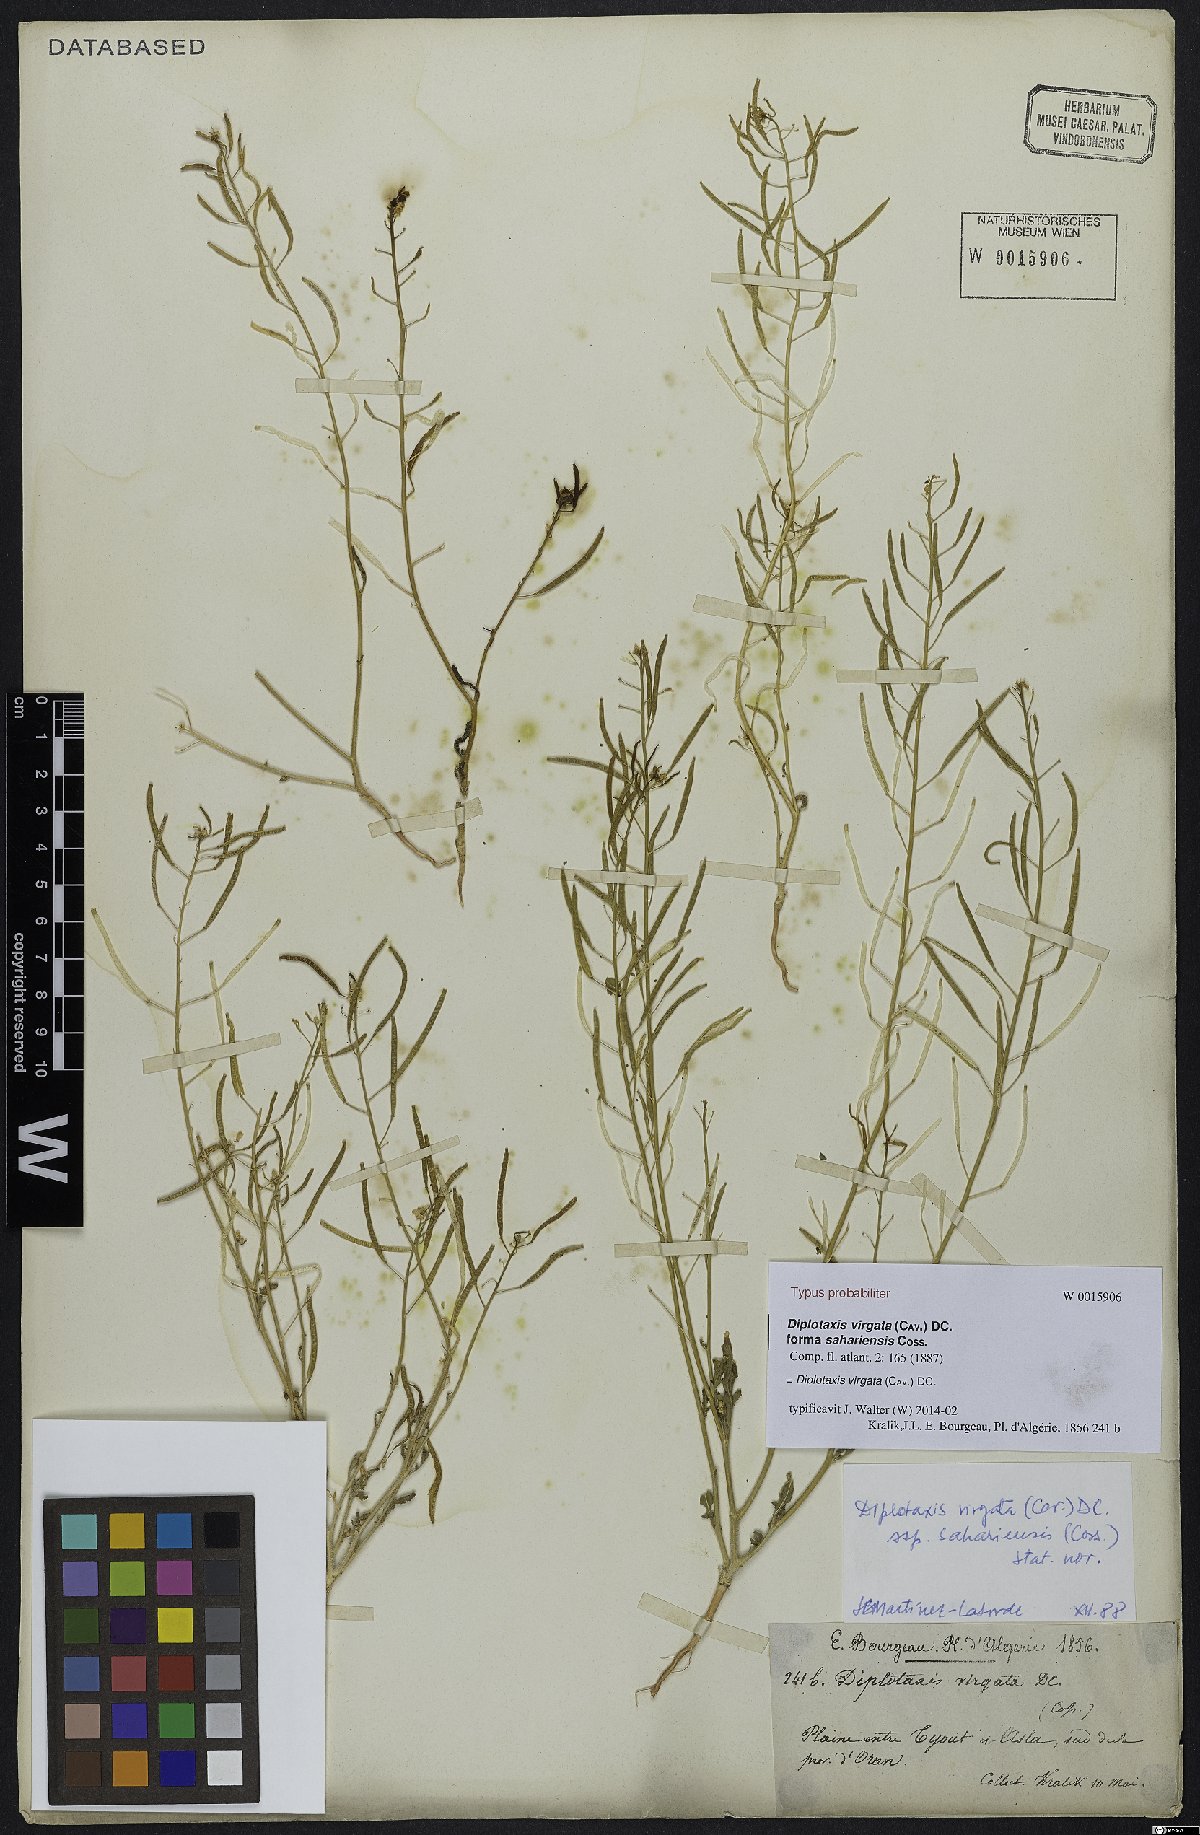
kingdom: Plantae
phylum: Tracheophyta
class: Magnoliopsida
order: Brassicales
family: Brassicaceae
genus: Diplotaxis
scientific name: Diplotaxis virgata
